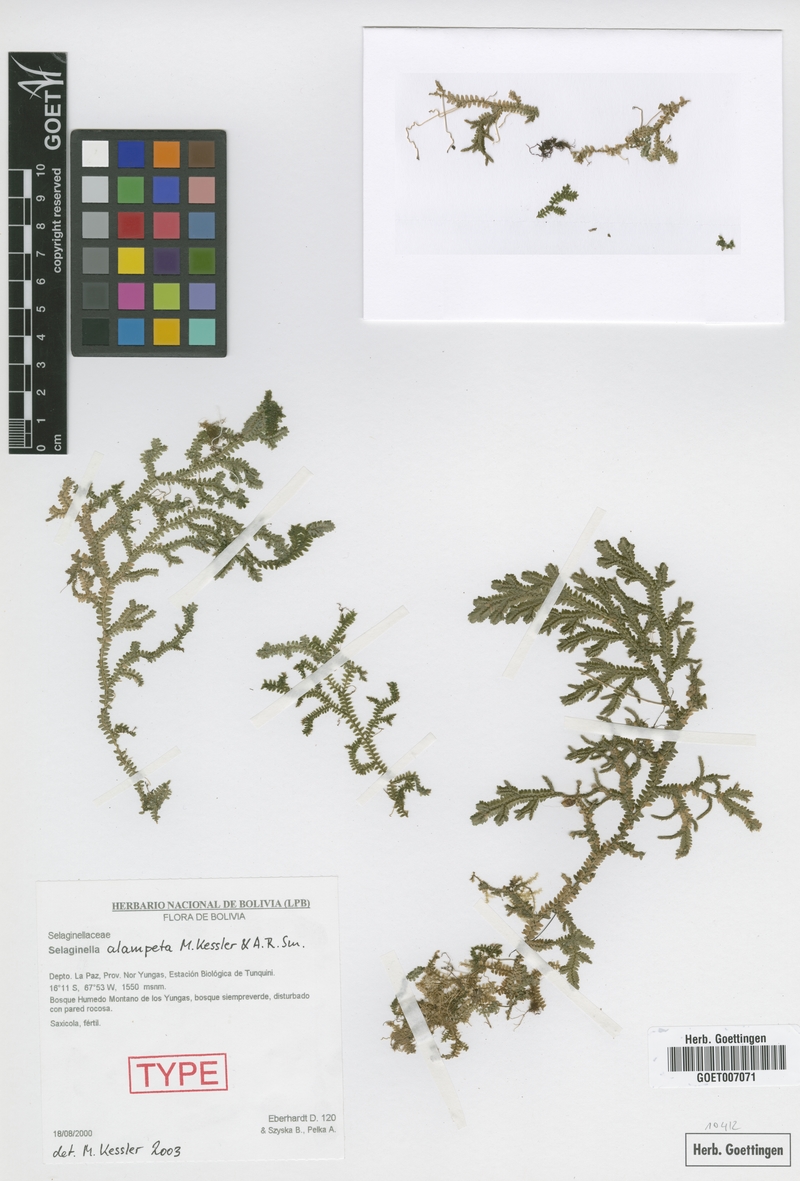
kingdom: Plantae
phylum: Tracheophyta
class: Lycopodiopsida
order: Selaginellales
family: Selaginellaceae
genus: Selaginella
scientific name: Selaginella alampeta
